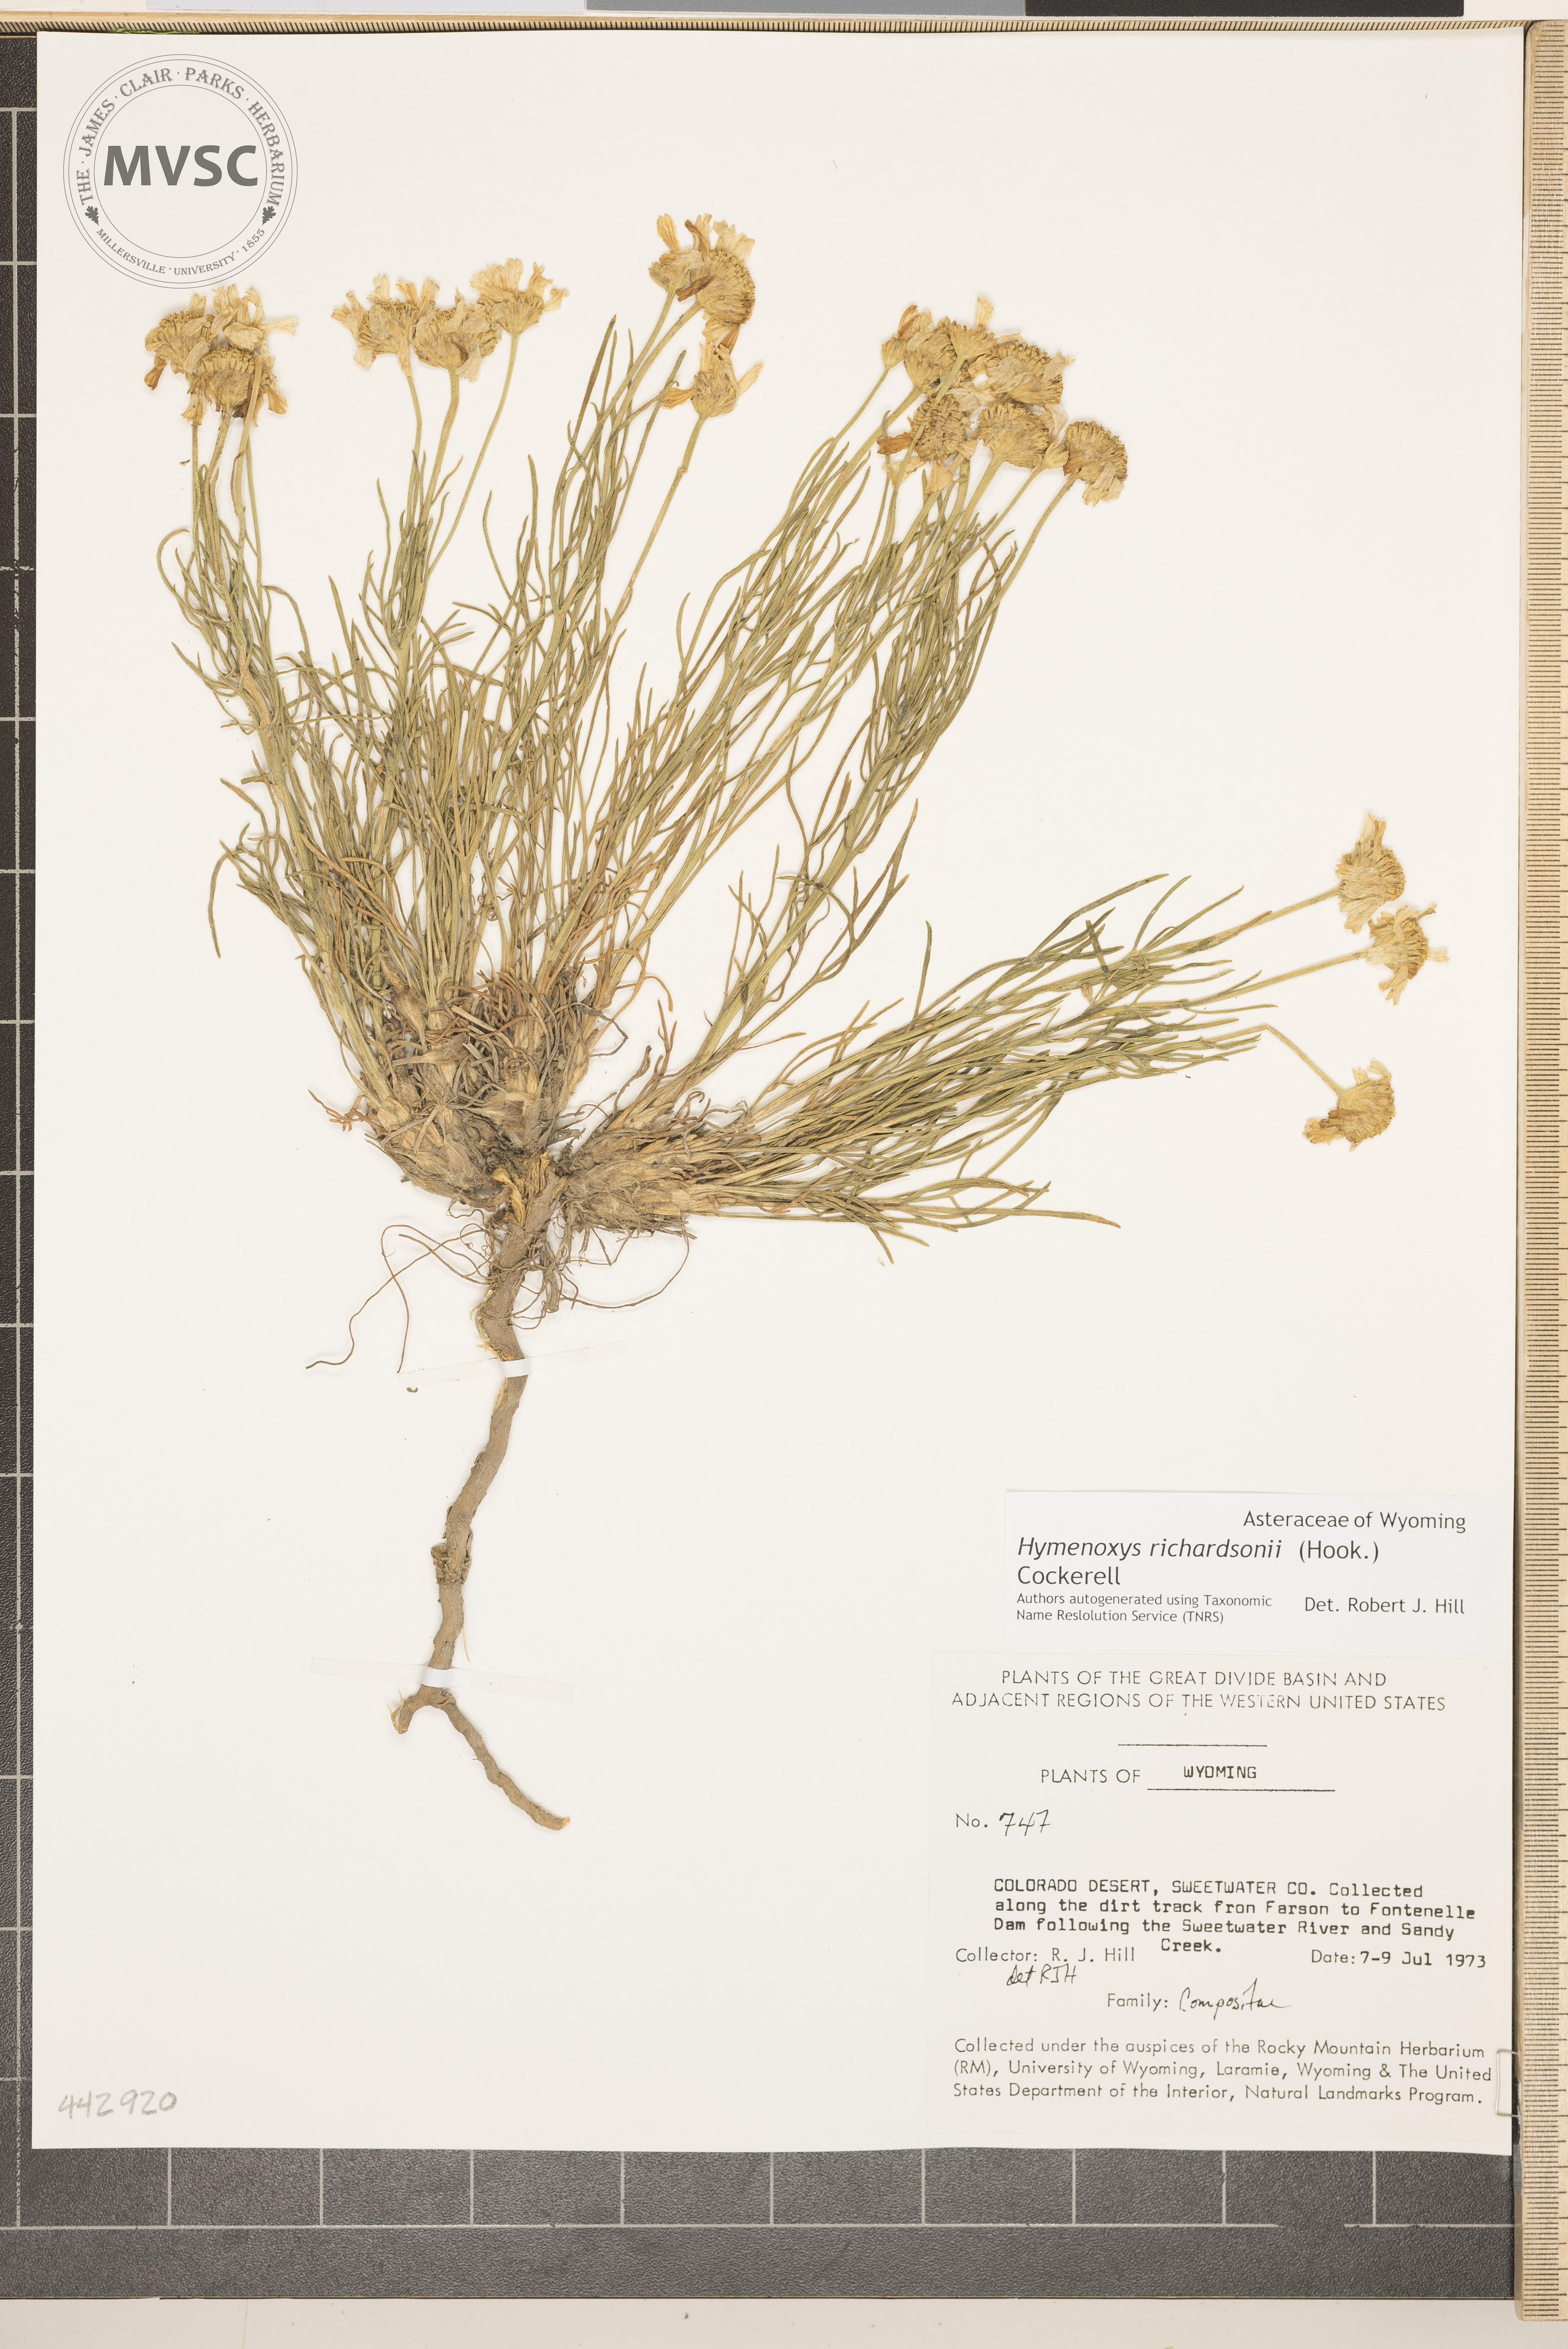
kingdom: Plantae
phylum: Tracheophyta
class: Magnoliopsida
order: Asterales
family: Asteraceae
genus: Hymenoxys
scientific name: Hymenoxys richardsonii
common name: Pingue rubberweed
